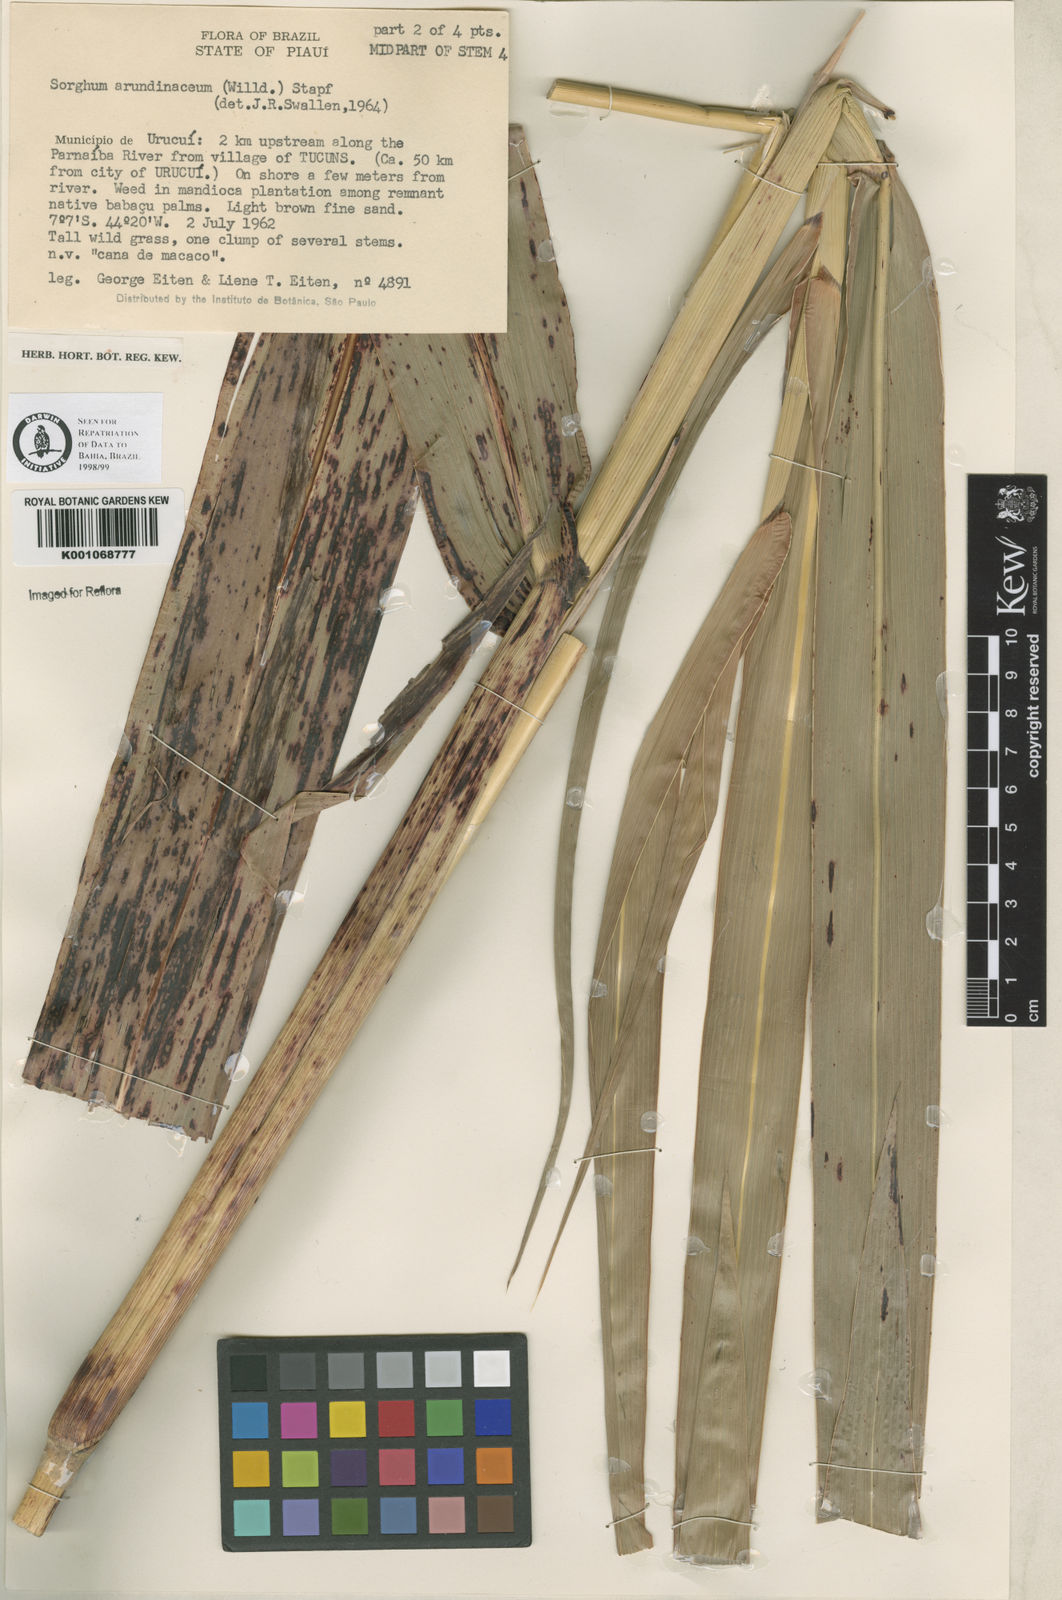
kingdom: Plantae
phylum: Tracheophyta
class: Liliopsida
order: Poales
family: Poaceae
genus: Sorghum
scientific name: Sorghum arundinaceum
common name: Sorghum
